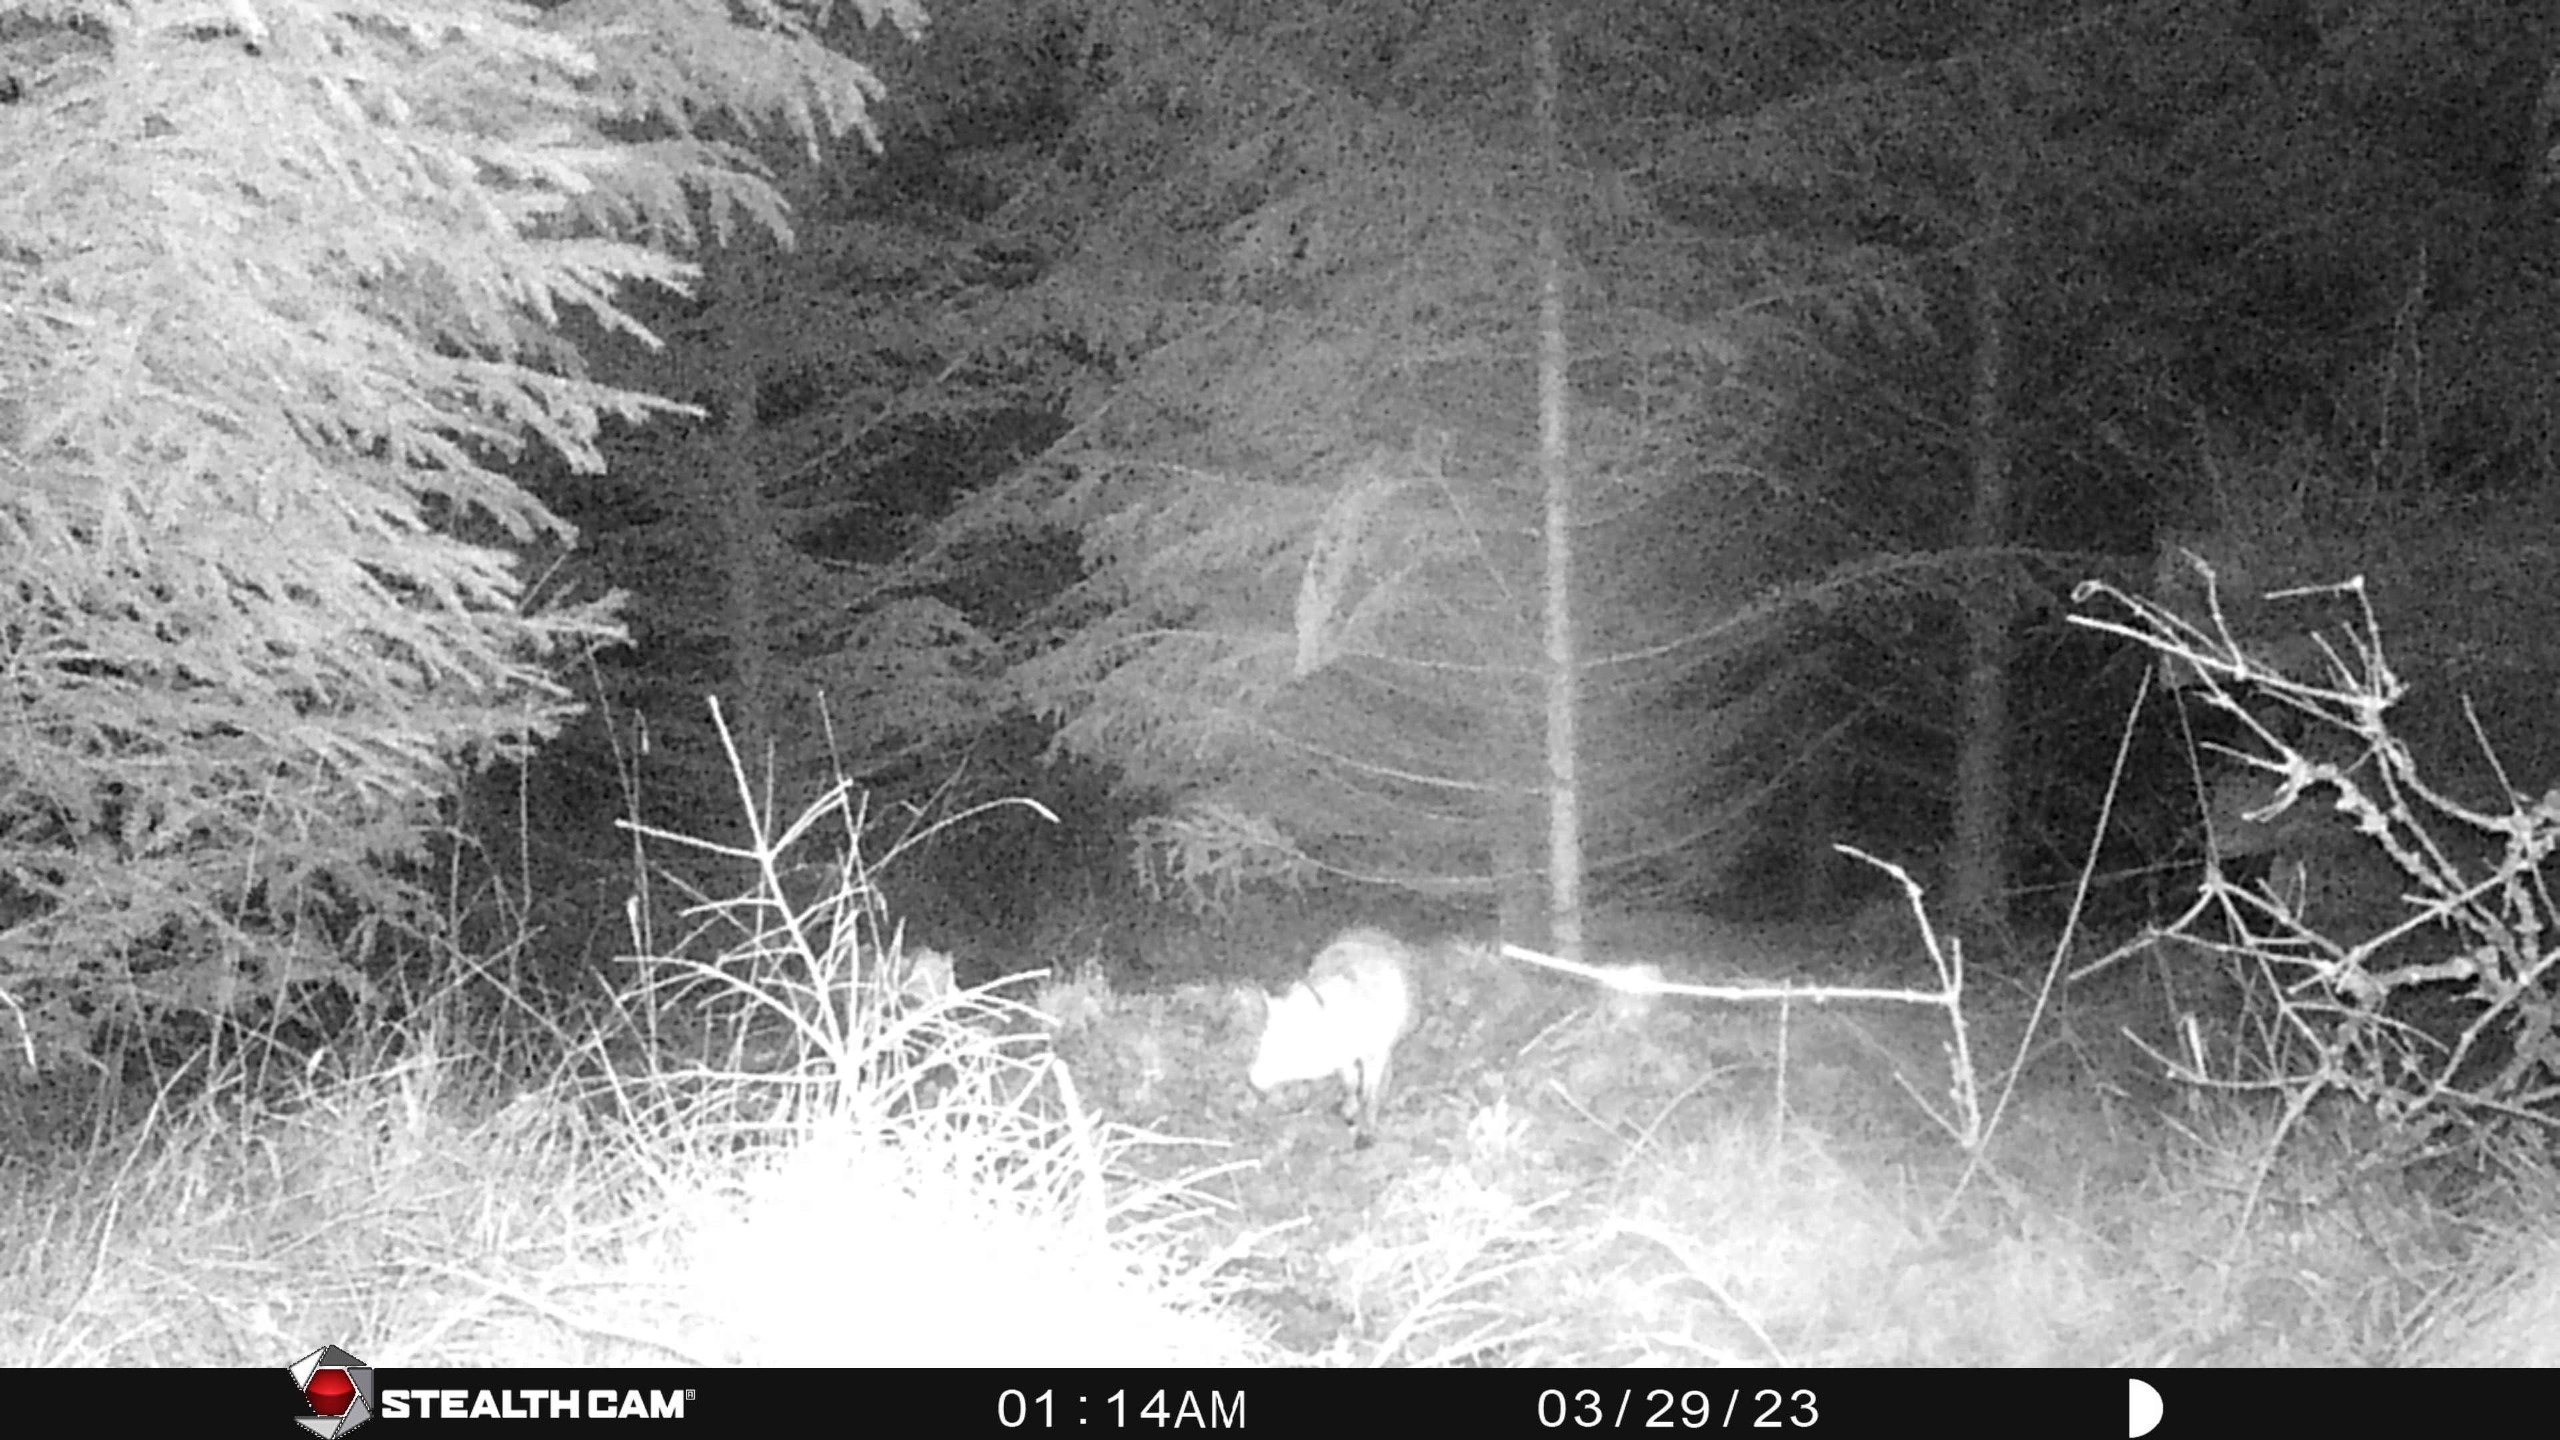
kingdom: Animalia
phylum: Chordata
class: Mammalia
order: Carnivora
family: Canidae
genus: Vulpes
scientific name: Vulpes vulpes
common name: Ræv
